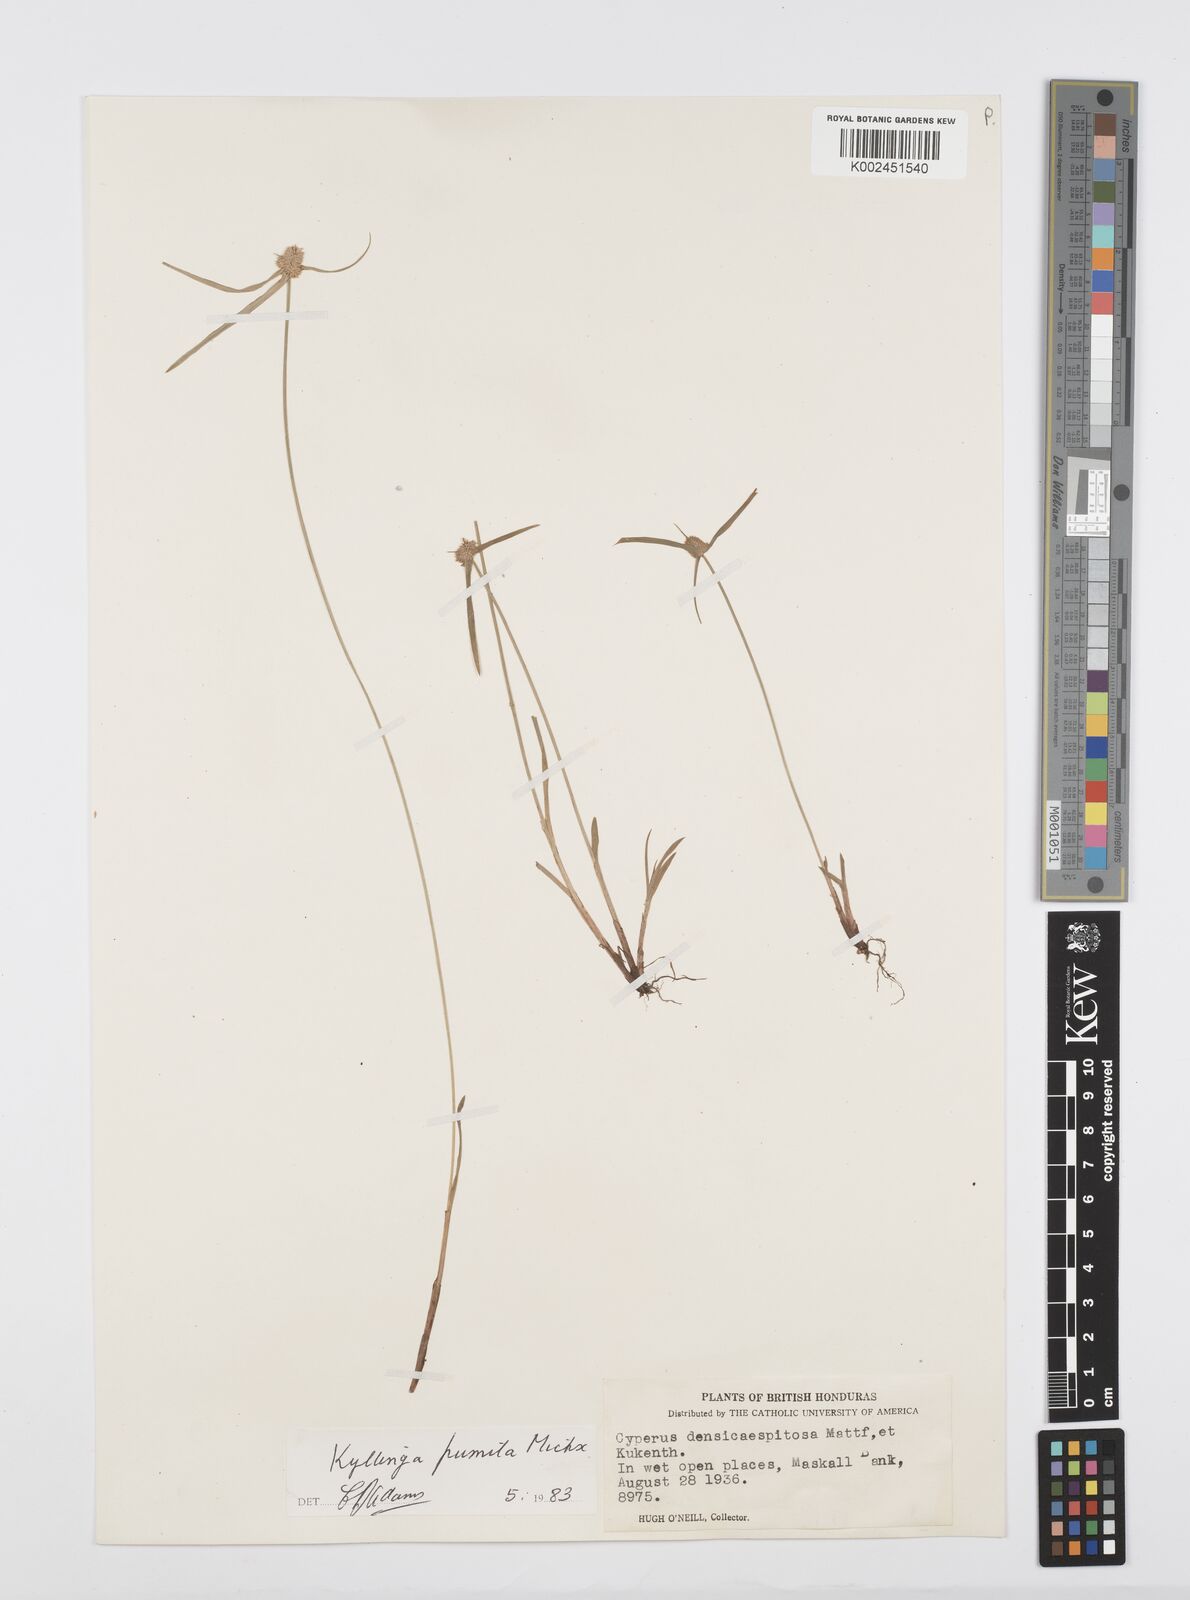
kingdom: Plantae
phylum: Tracheophyta
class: Liliopsida
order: Poales
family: Cyperaceae
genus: Cyperus
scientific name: Cyperus hortensis
